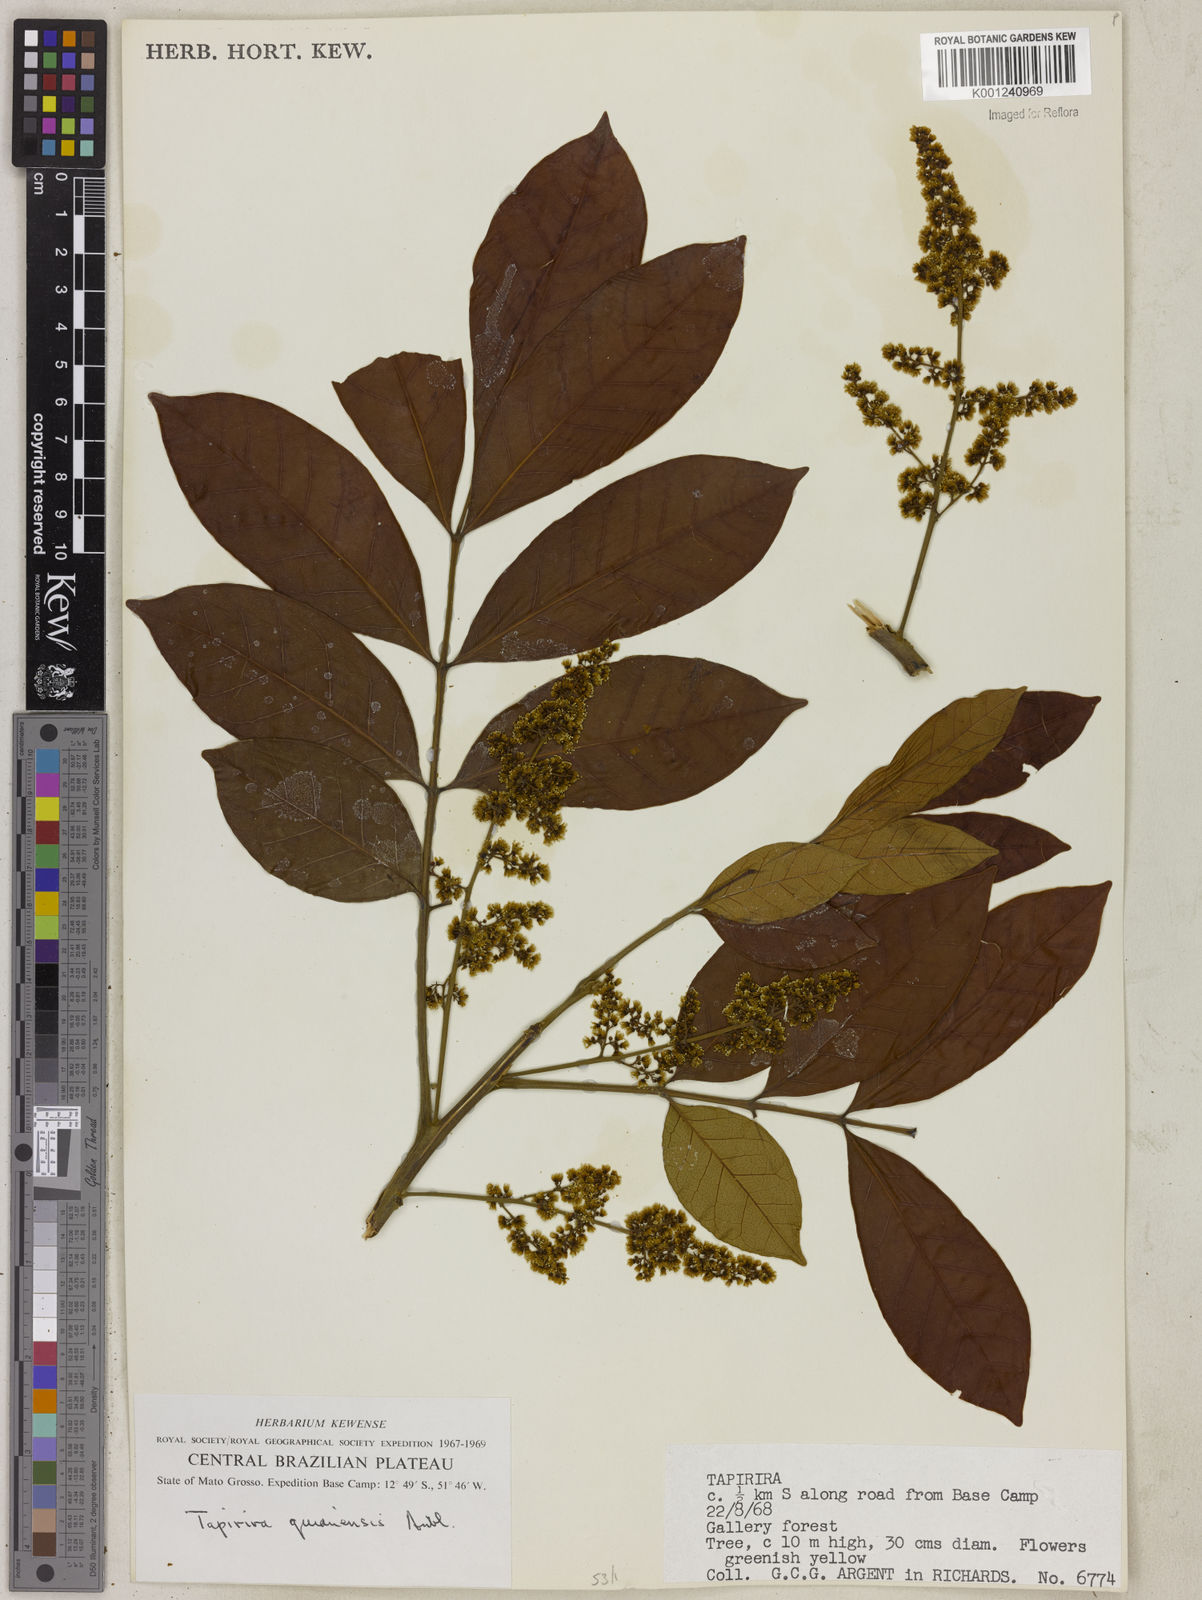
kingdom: Plantae
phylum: Tracheophyta
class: Magnoliopsida
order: Sapindales
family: Anacardiaceae
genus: Tapirira
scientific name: Tapirira guianensis
